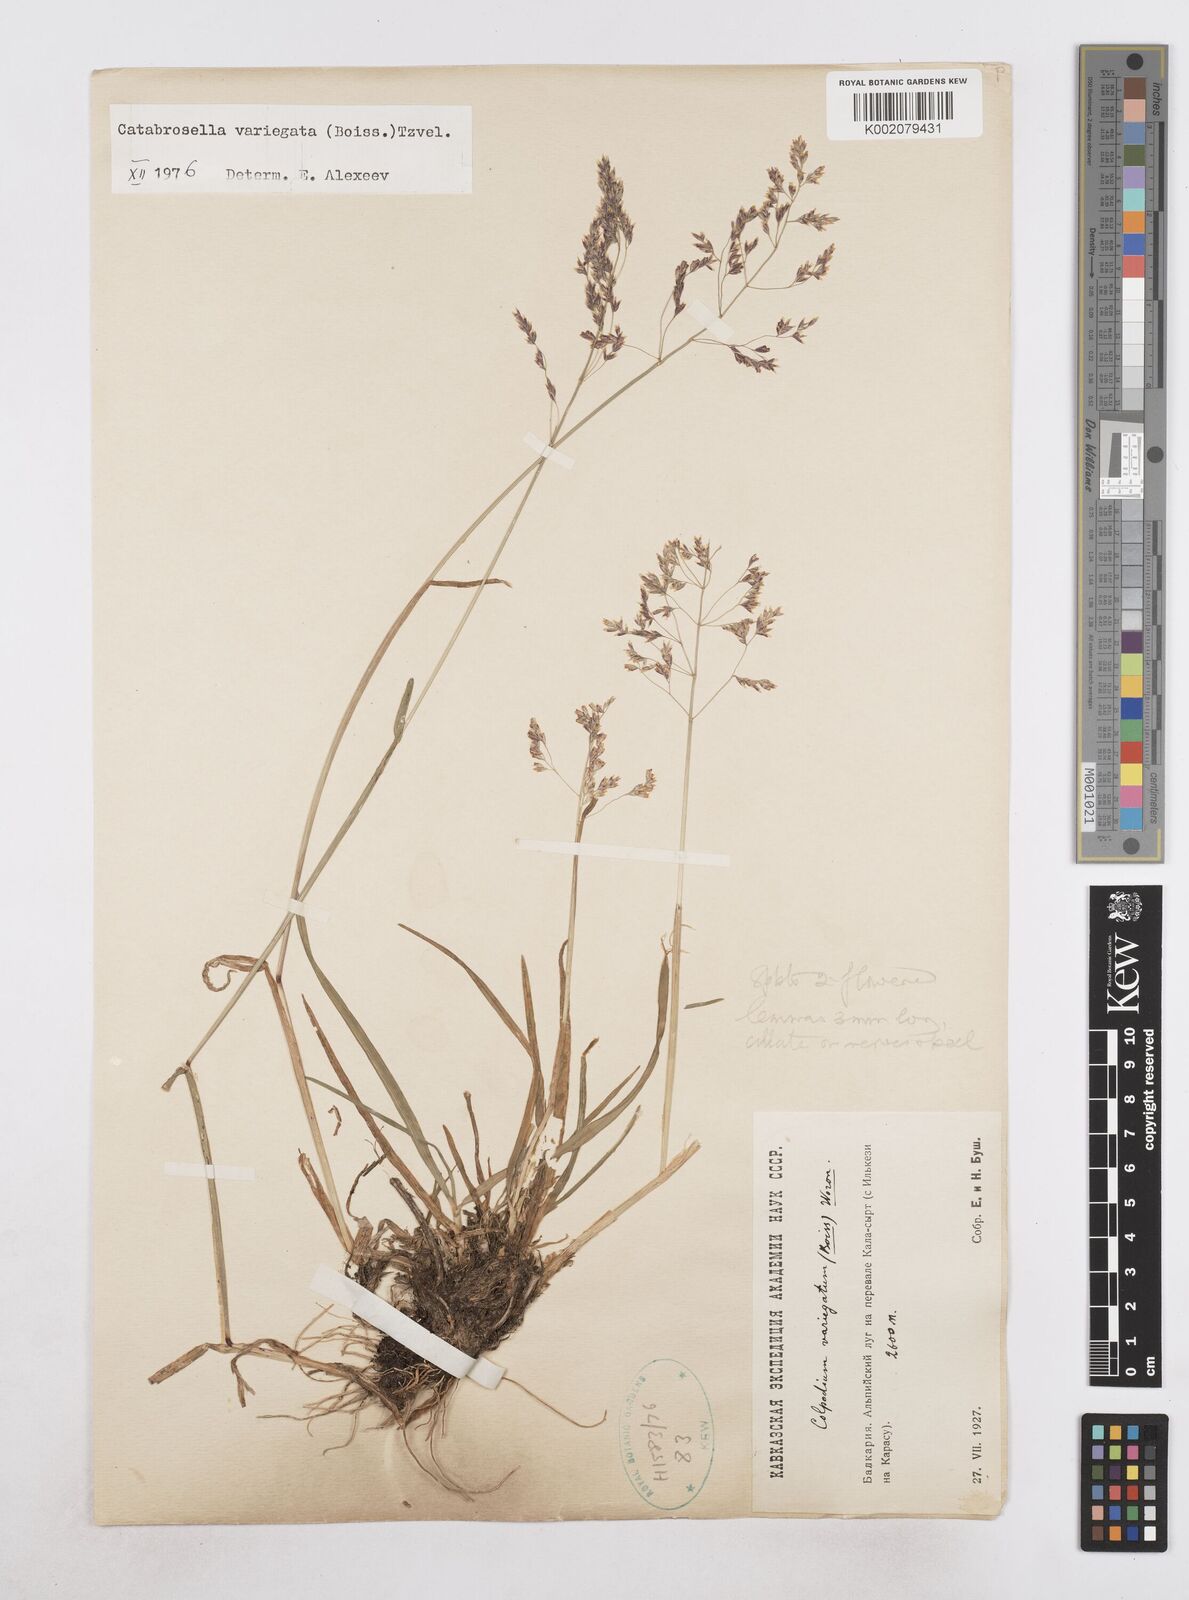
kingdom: Plantae
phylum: Tracheophyta
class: Liliopsida
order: Poales
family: Poaceae
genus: Catabrosella
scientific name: Catabrosella variegata
